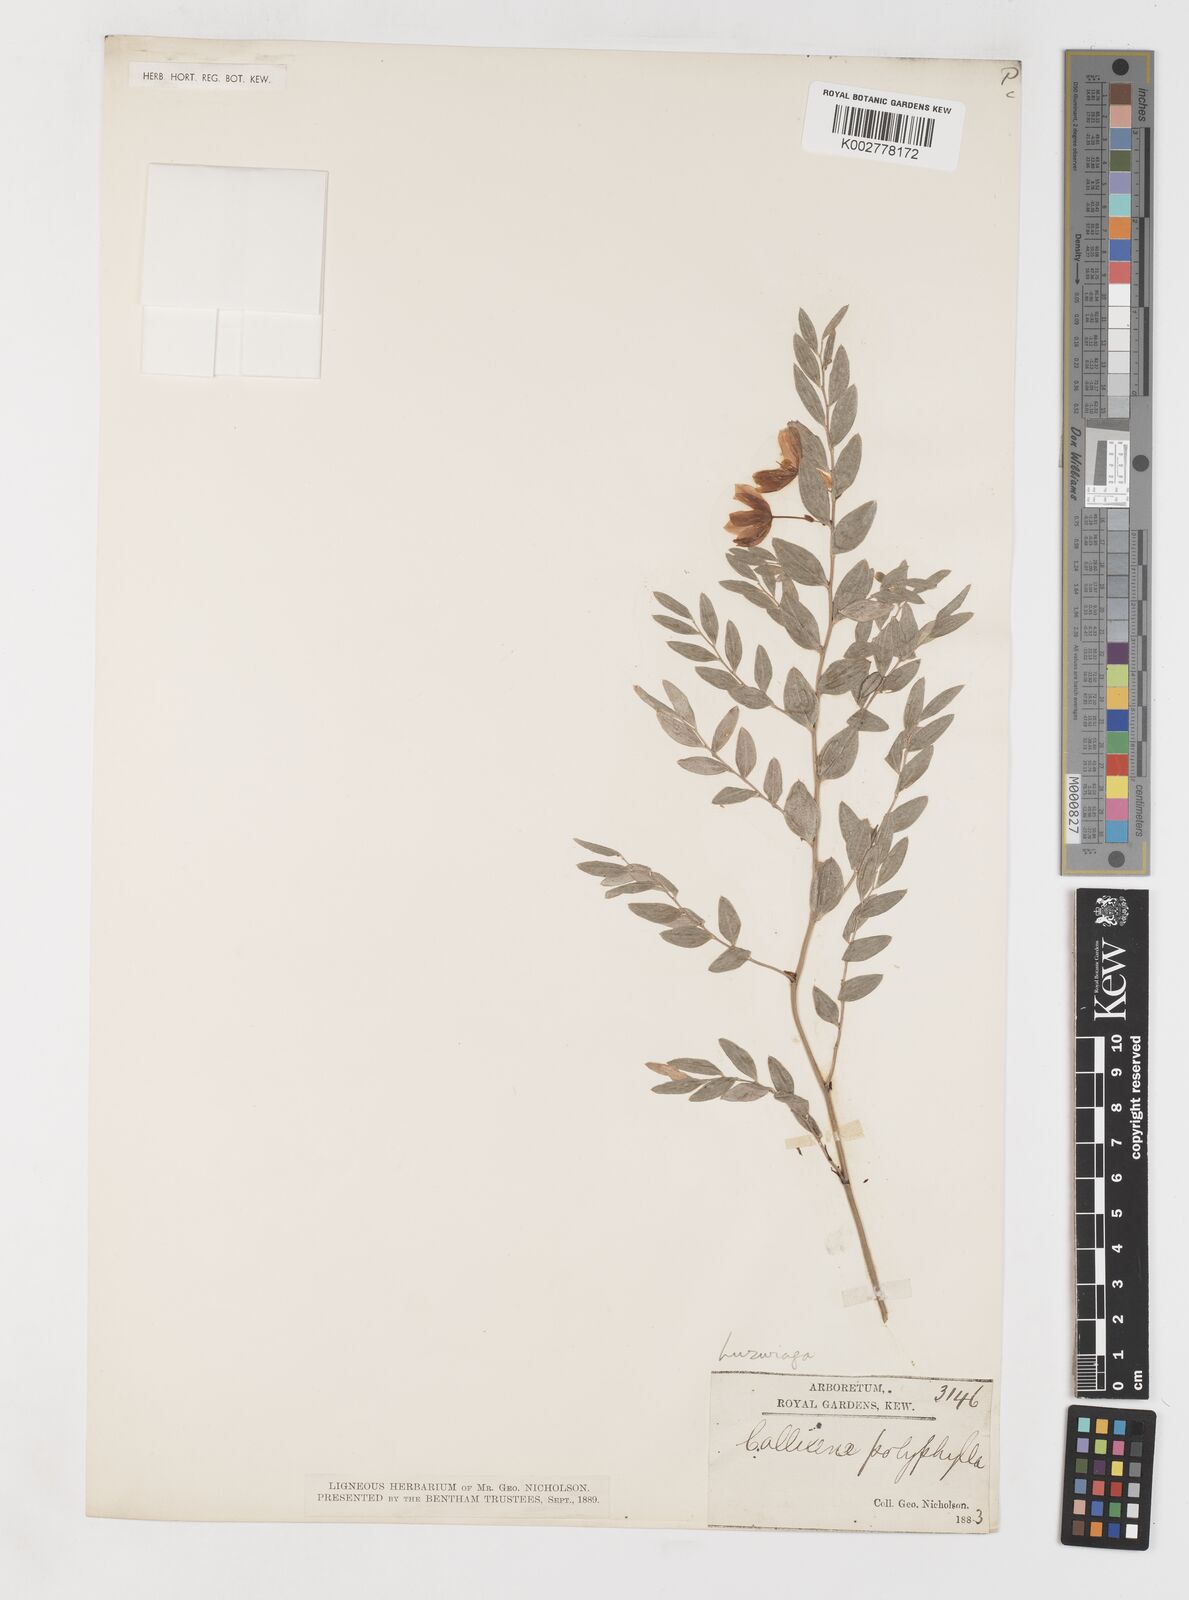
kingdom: Plantae
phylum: Tracheophyta
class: Liliopsida
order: Liliales
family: Alstroemeriaceae
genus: Luzuriaga
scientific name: Luzuriaga polyphylla
